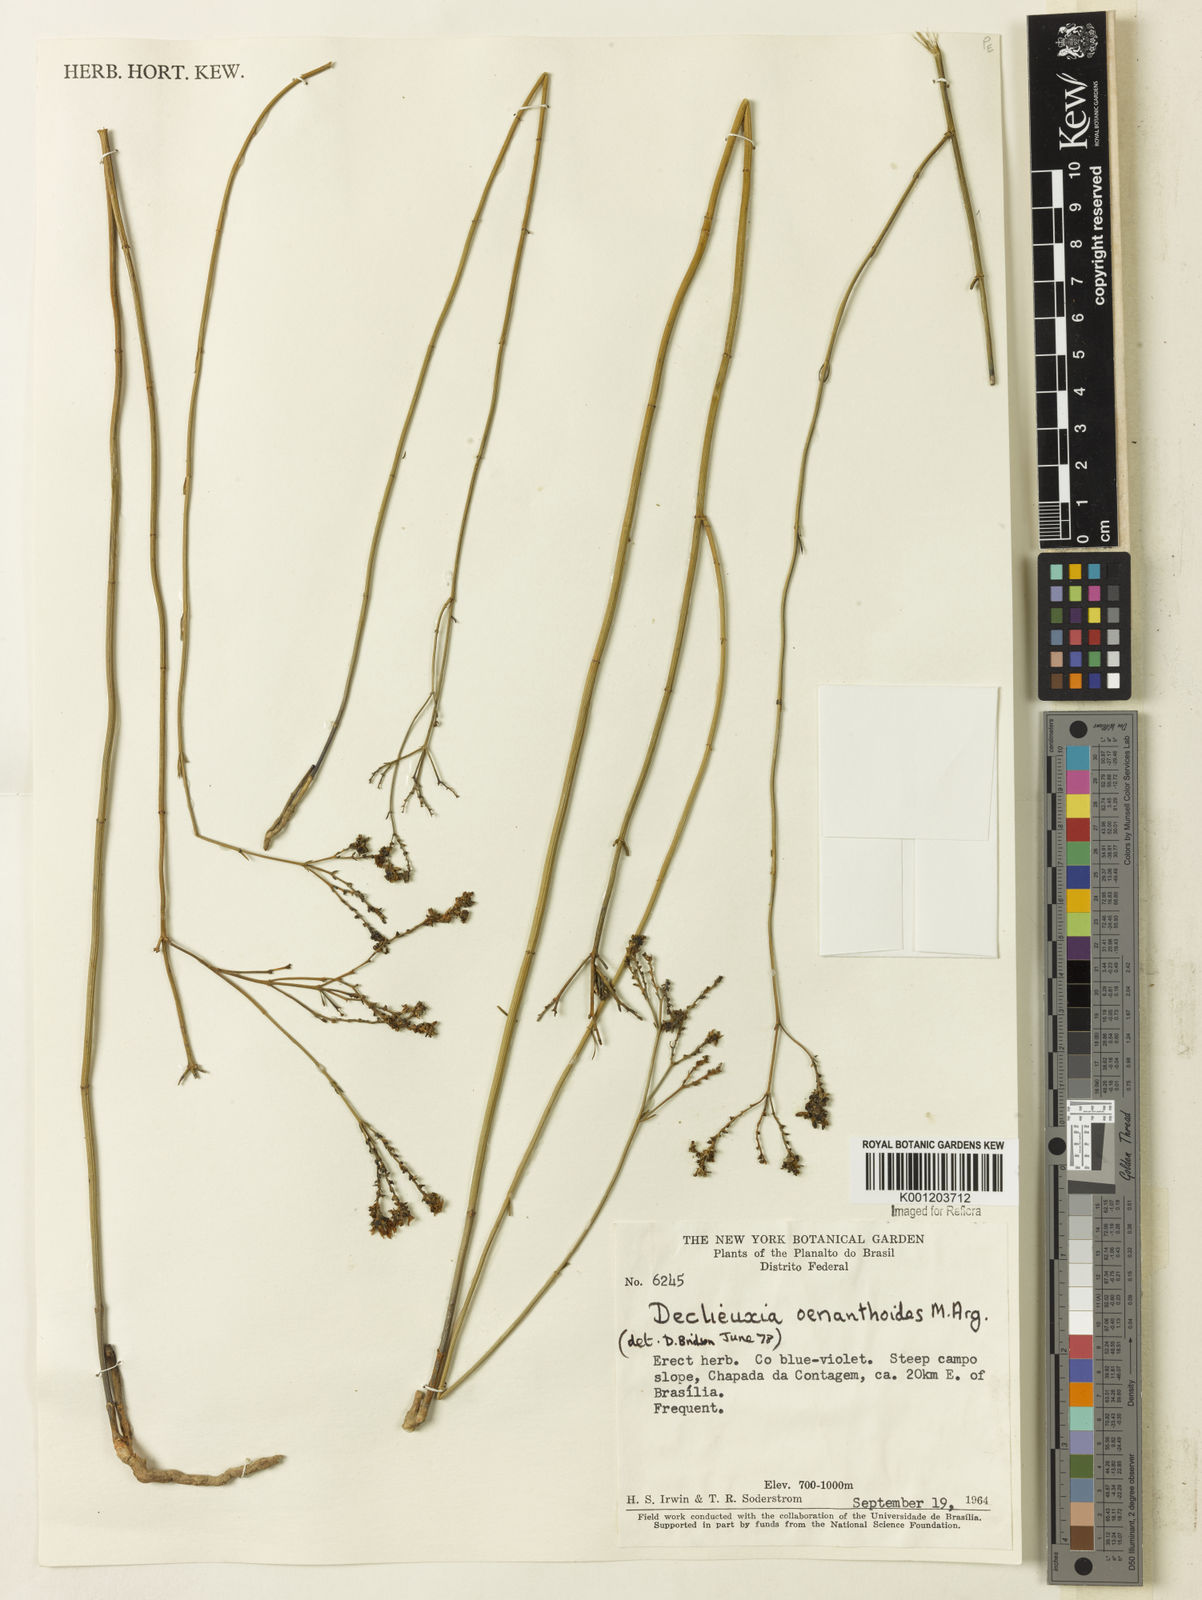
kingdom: Plantae
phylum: Tracheophyta
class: Magnoliopsida
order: Gentianales
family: Rubiaceae
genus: Declieuxia
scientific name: Declieuxia
